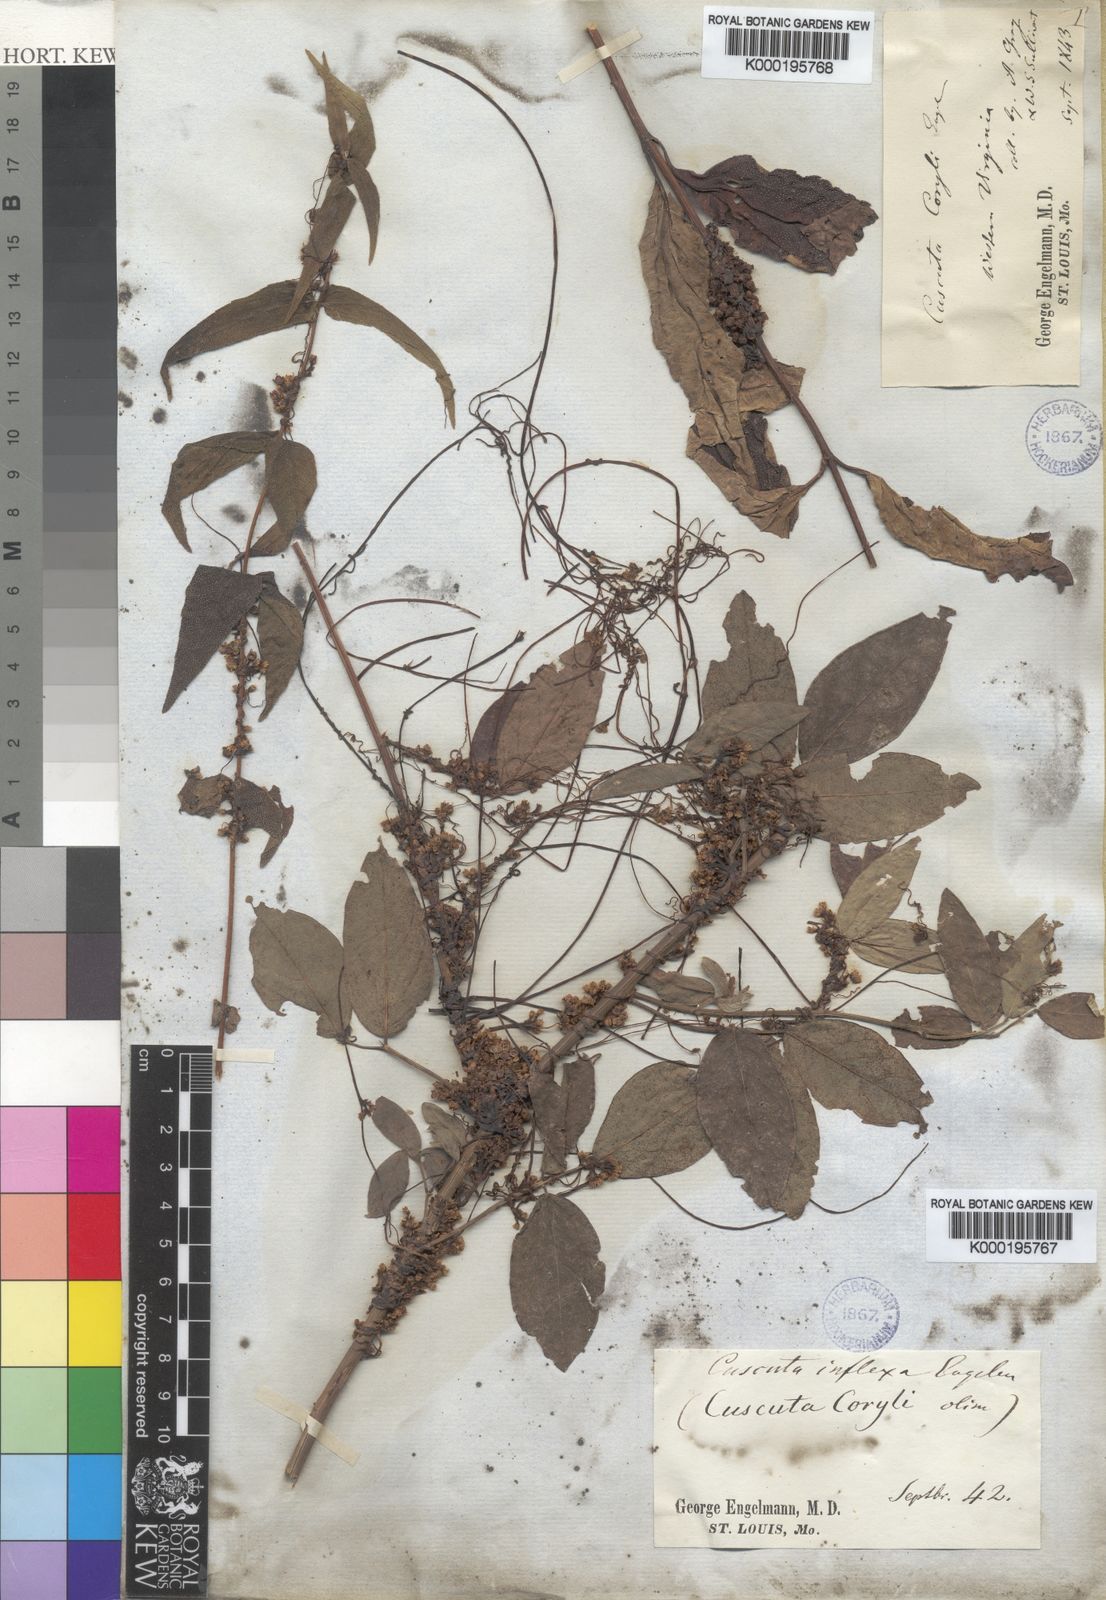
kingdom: Plantae
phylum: Tracheophyta
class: Magnoliopsida
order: Solanales
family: Convolvulaceae
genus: Cuscuta
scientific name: Cuscuta coryli
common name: Hazel dodder
